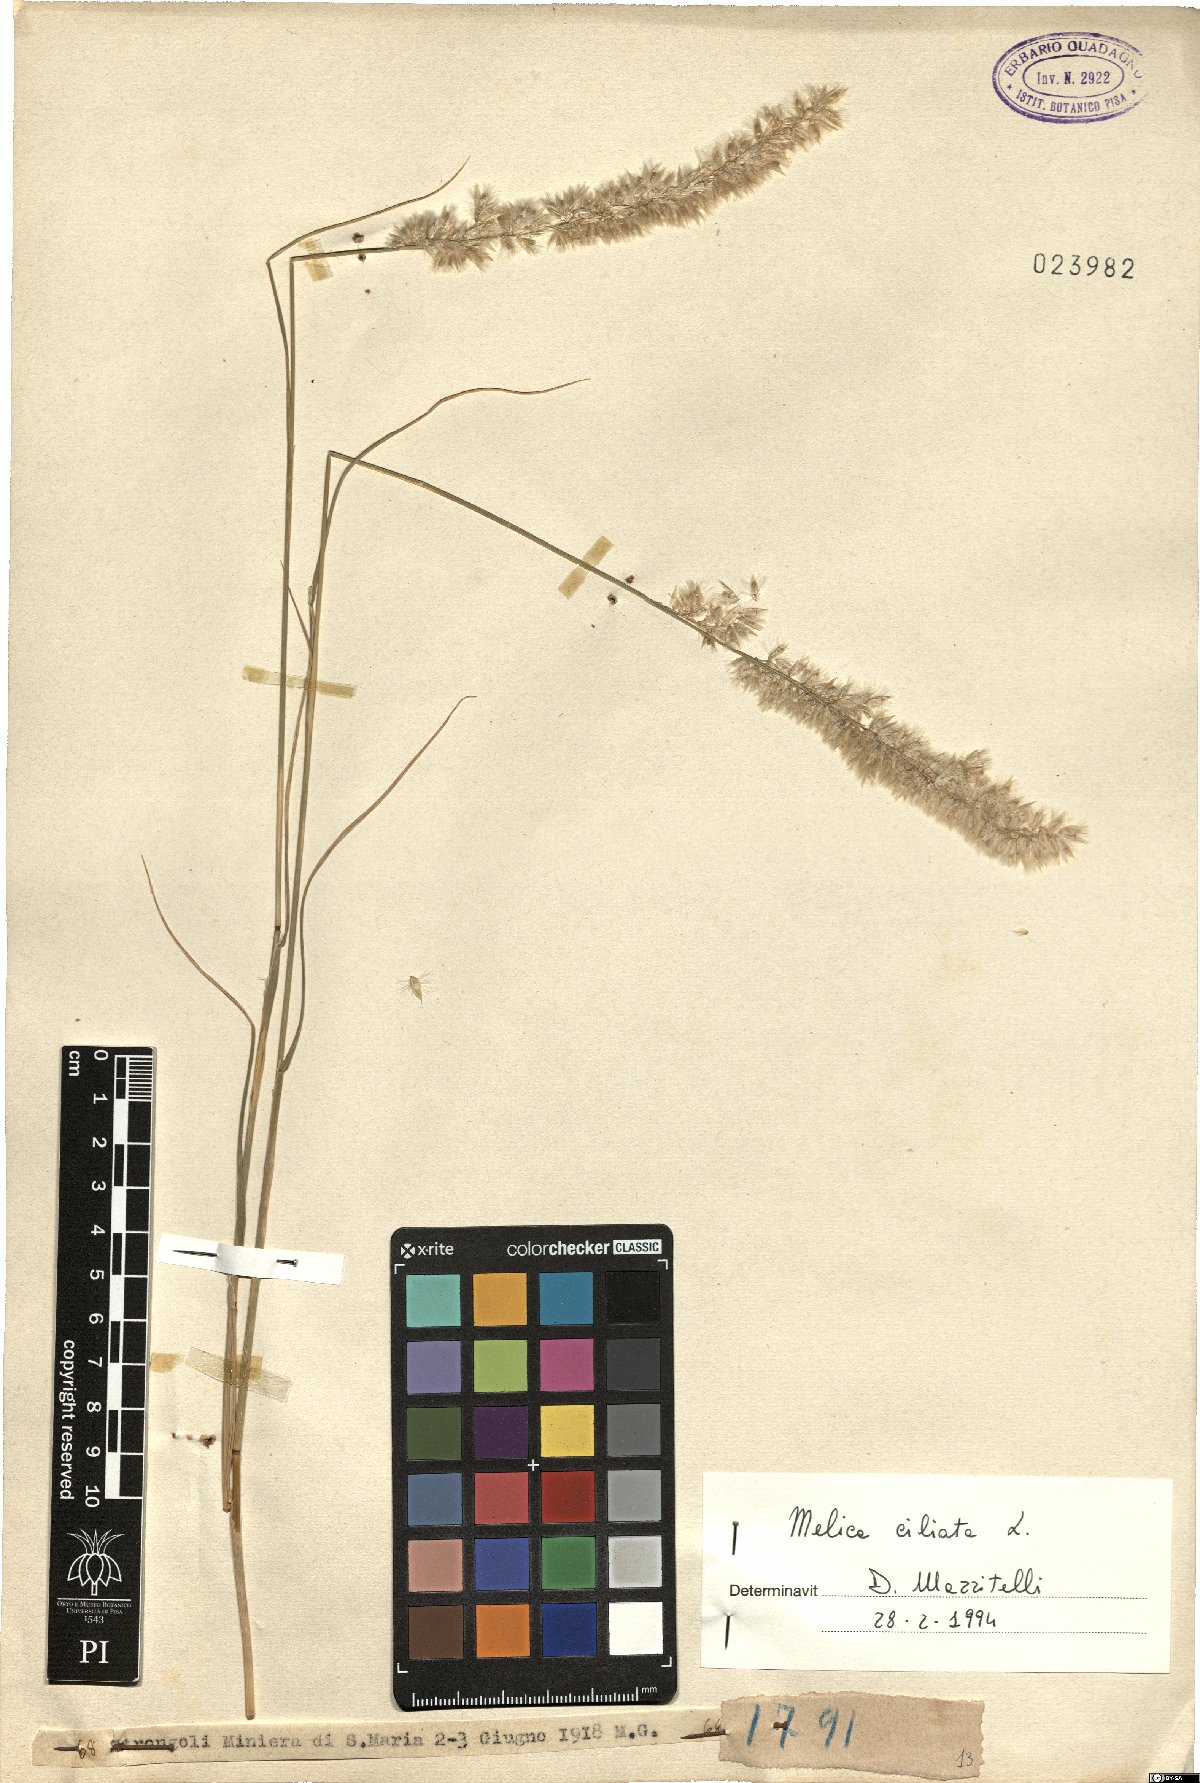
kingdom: Plantae
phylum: Tracheophyta
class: Liliopsida
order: Poales
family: Poaceae
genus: Melica
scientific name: Melica ciliata
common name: Hairy melicgrass
